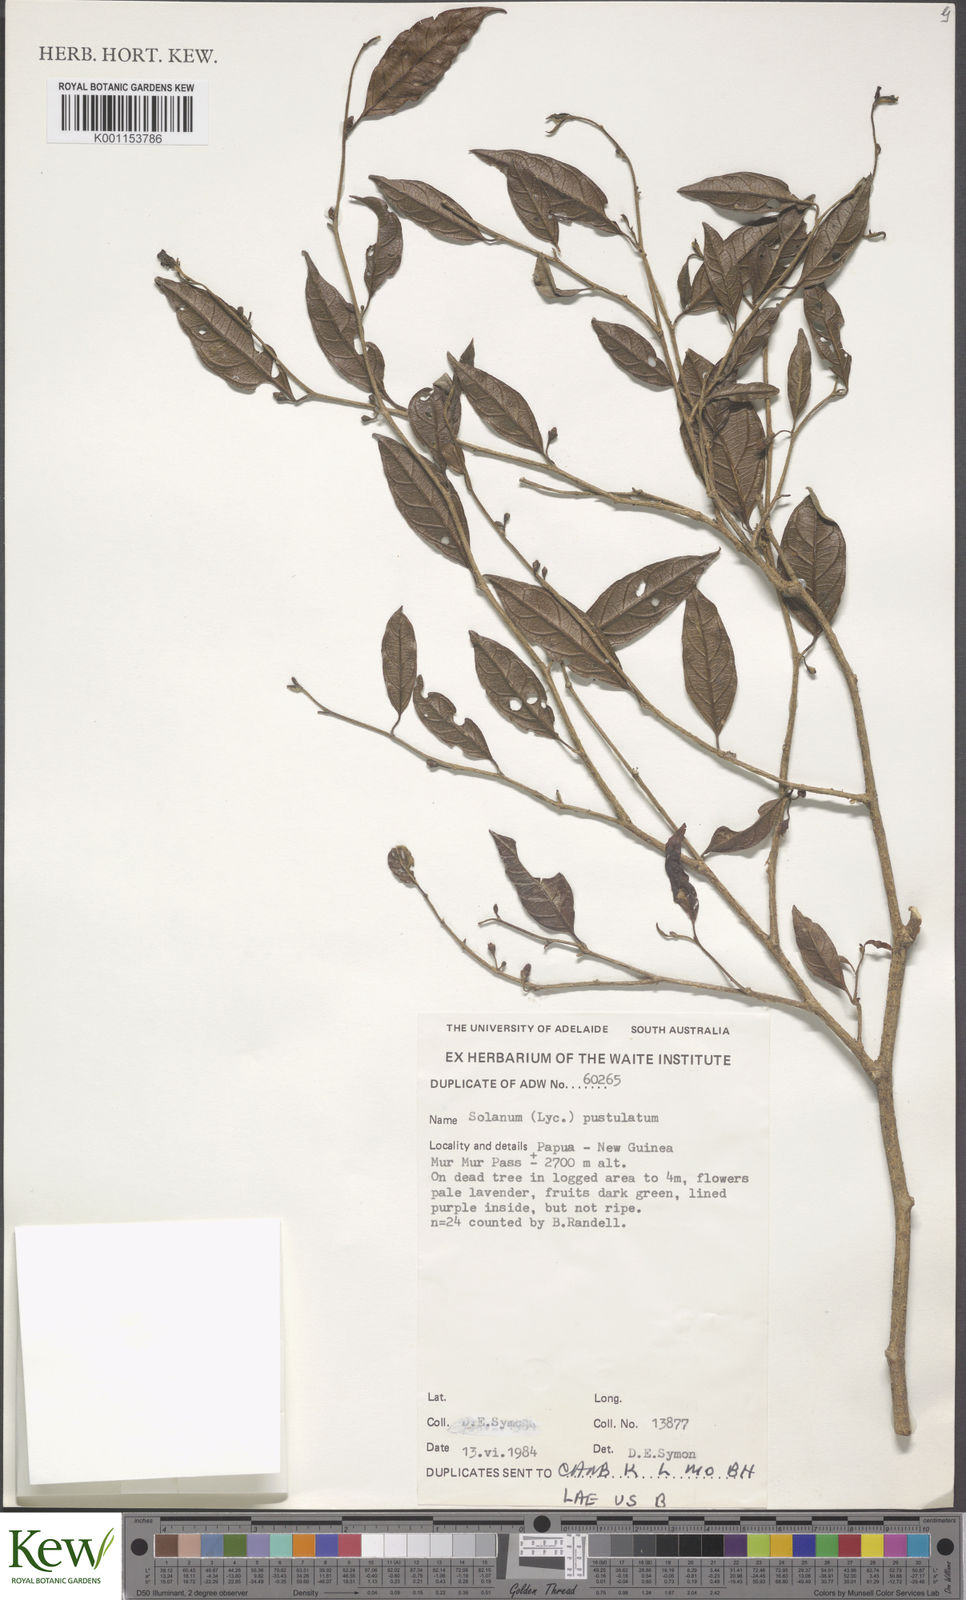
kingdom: Plantae
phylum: Tracheophyta
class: Magnoliopsida
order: Solanales
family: Solanaceae
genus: Lycianthes
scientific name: Lycianthes rostellata
